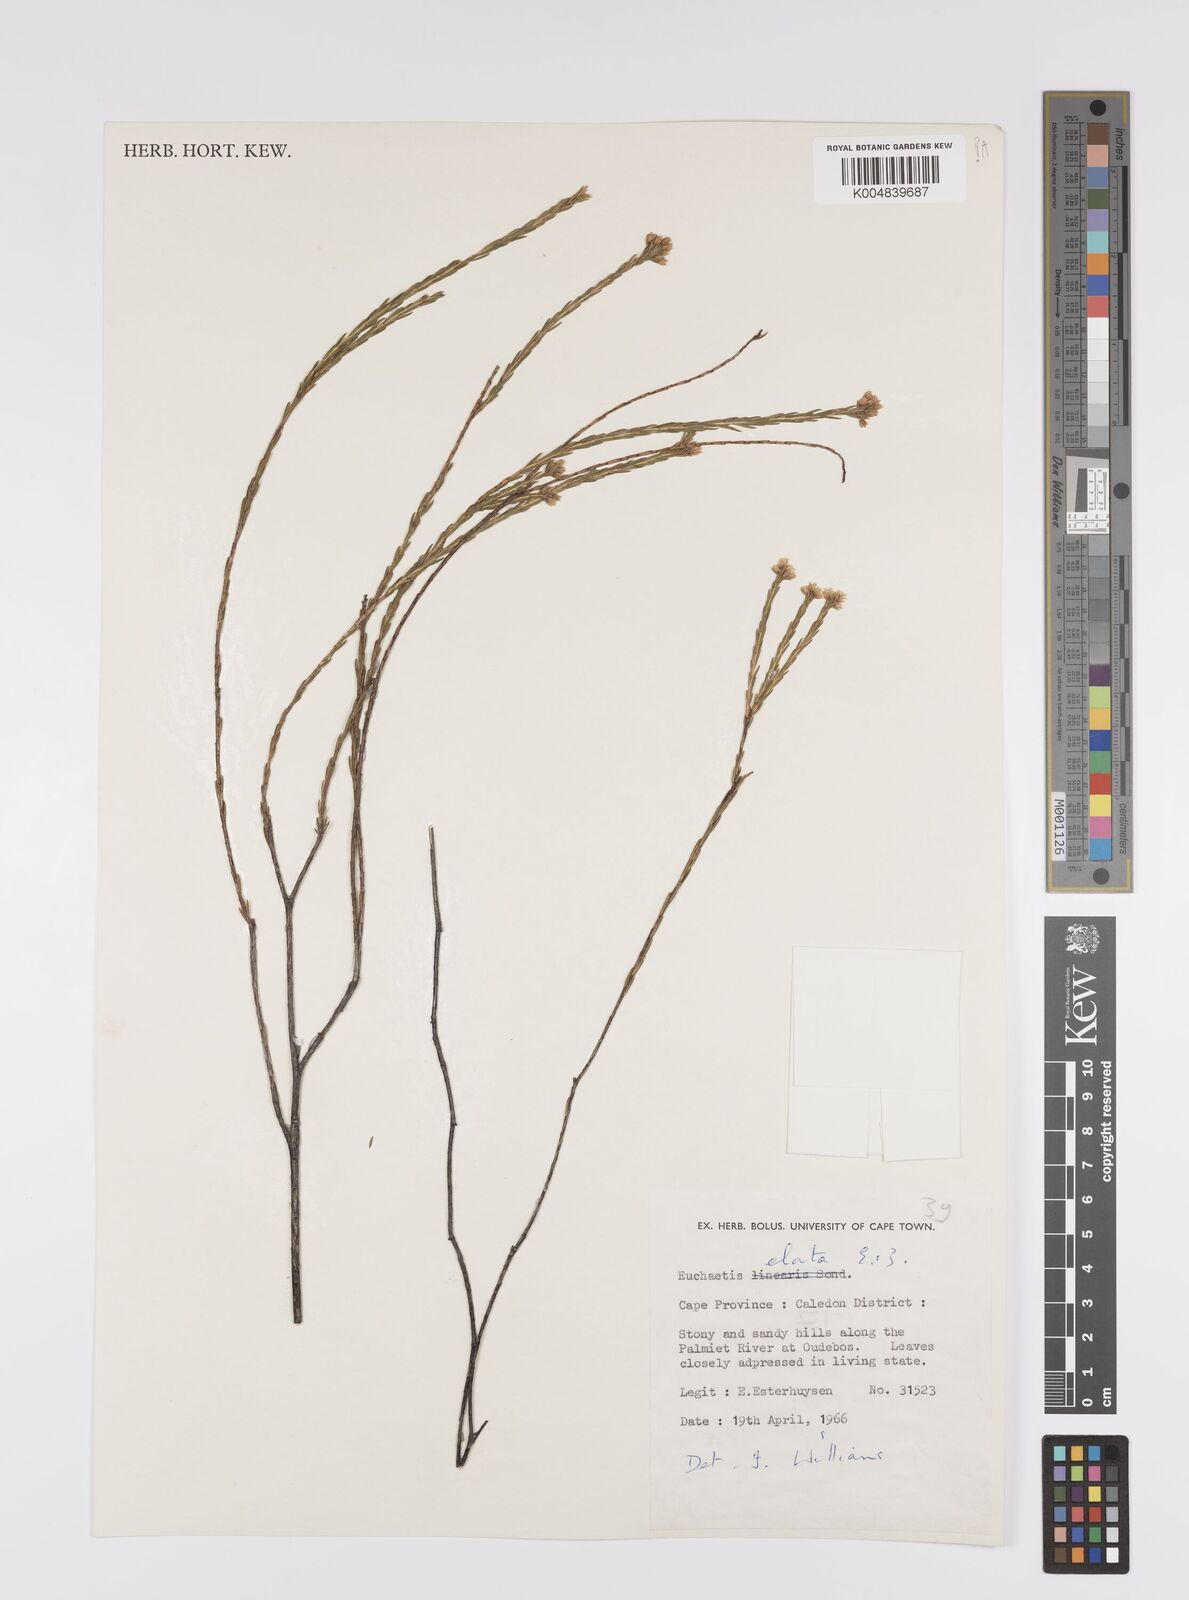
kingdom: Plantae
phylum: Tracheophyta
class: Magnoliopsida
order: Sapindales
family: Rutaceae
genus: Euchaetis
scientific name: Euchaetis elata
